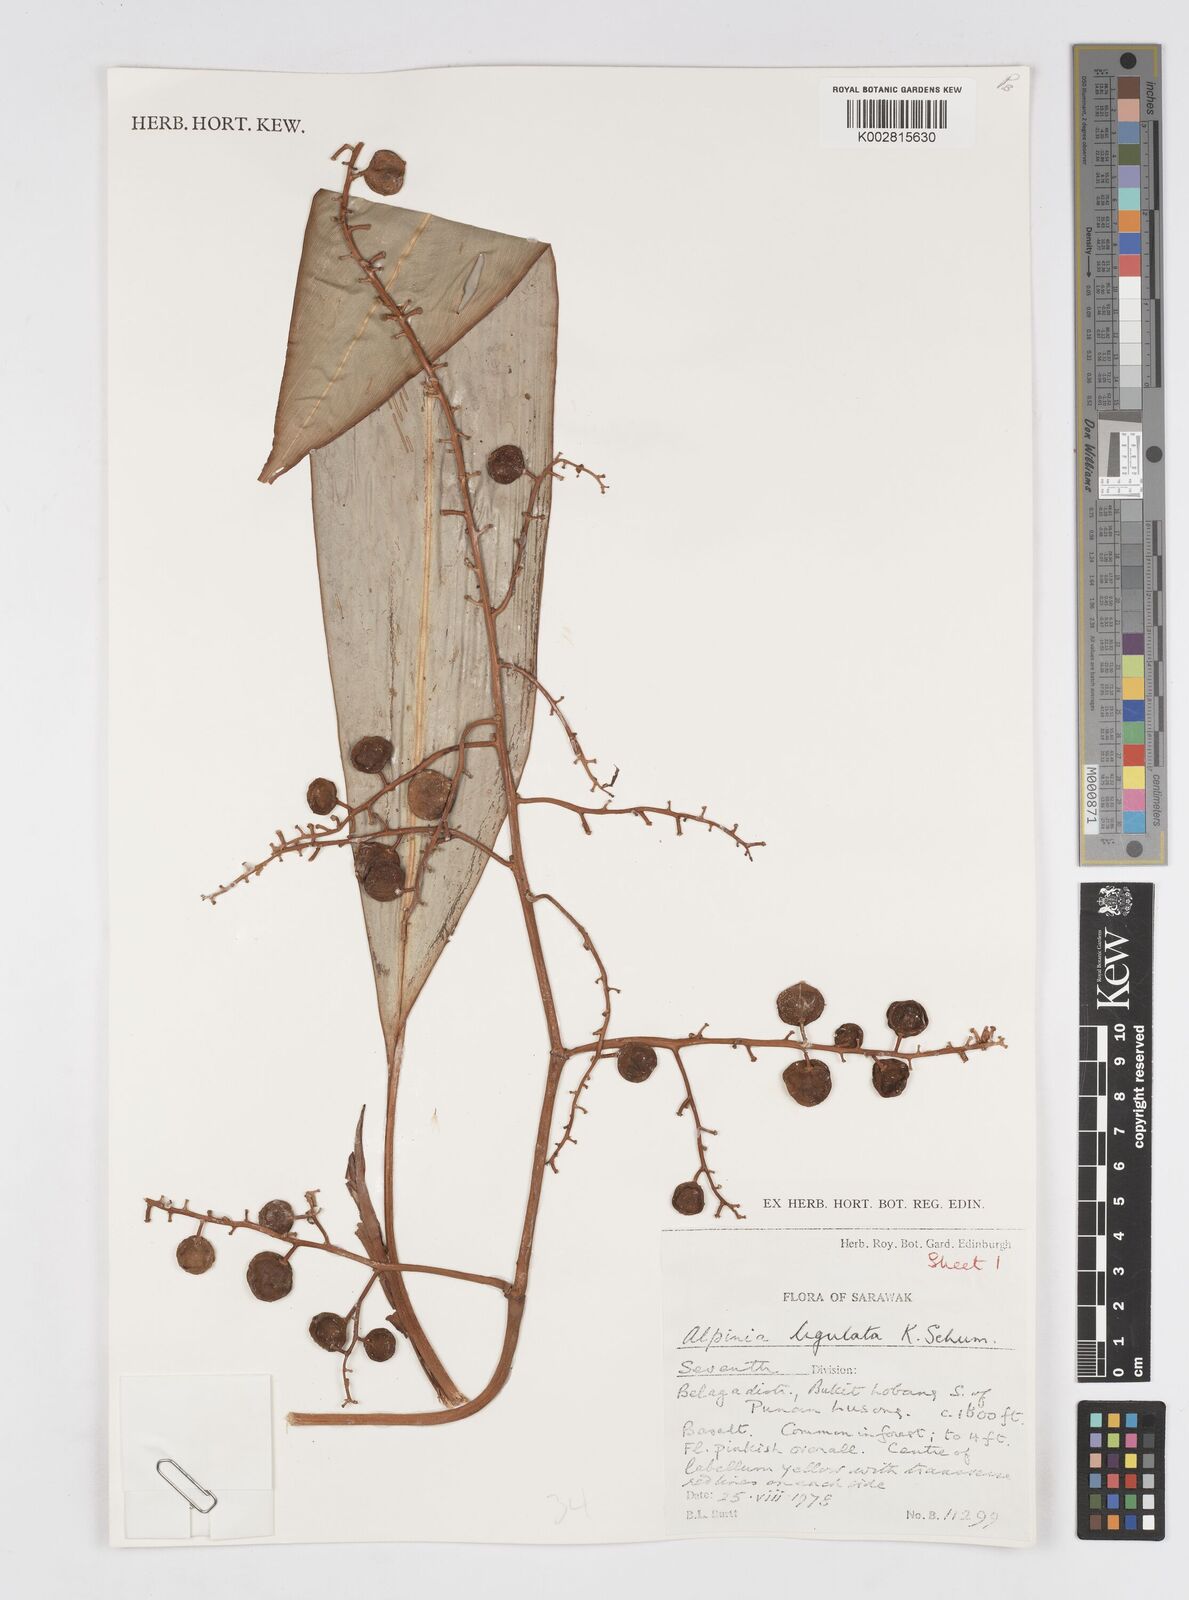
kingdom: Plantae
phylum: Tracheophyta
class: Liliopsida
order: Zingiberales
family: Zingiberaceae
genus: Alpinia
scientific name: Alpinia ligulata
